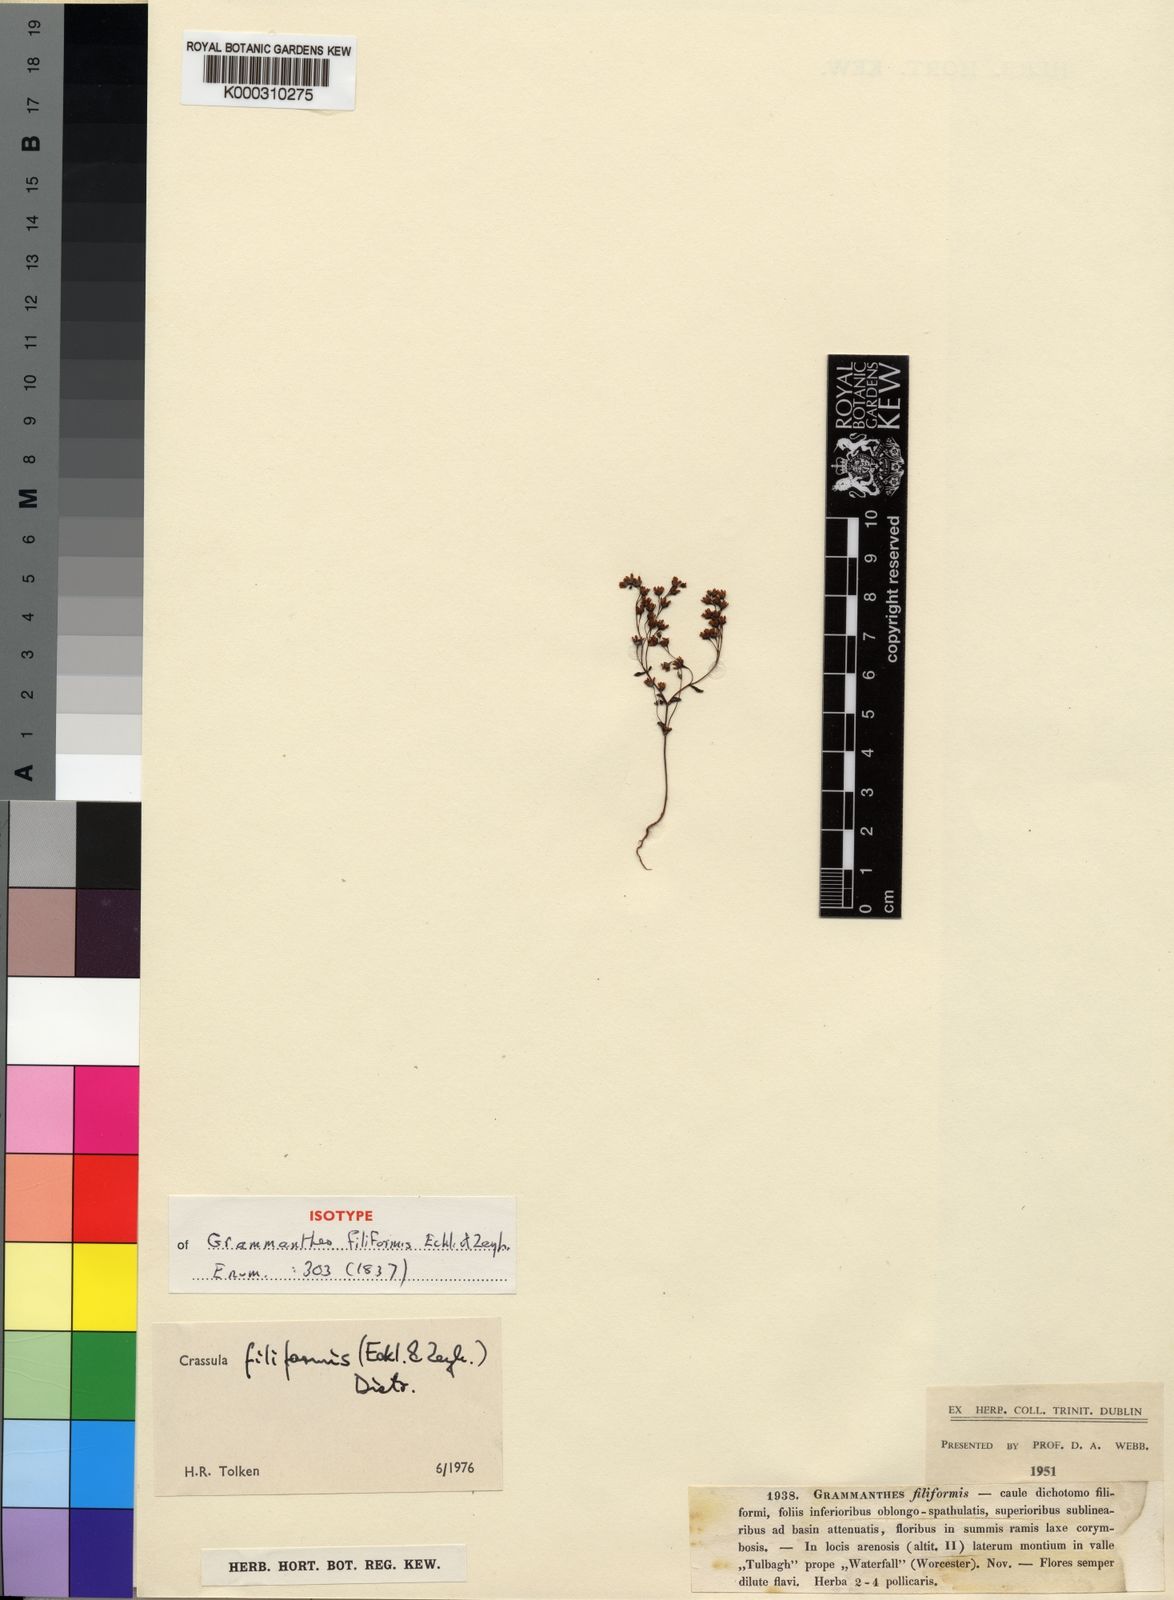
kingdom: Plantae
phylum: Tracheophyta
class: Magnoliopsida
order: Saxifragales
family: Crassulaceae
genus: Crassula
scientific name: Crassula filiformis
